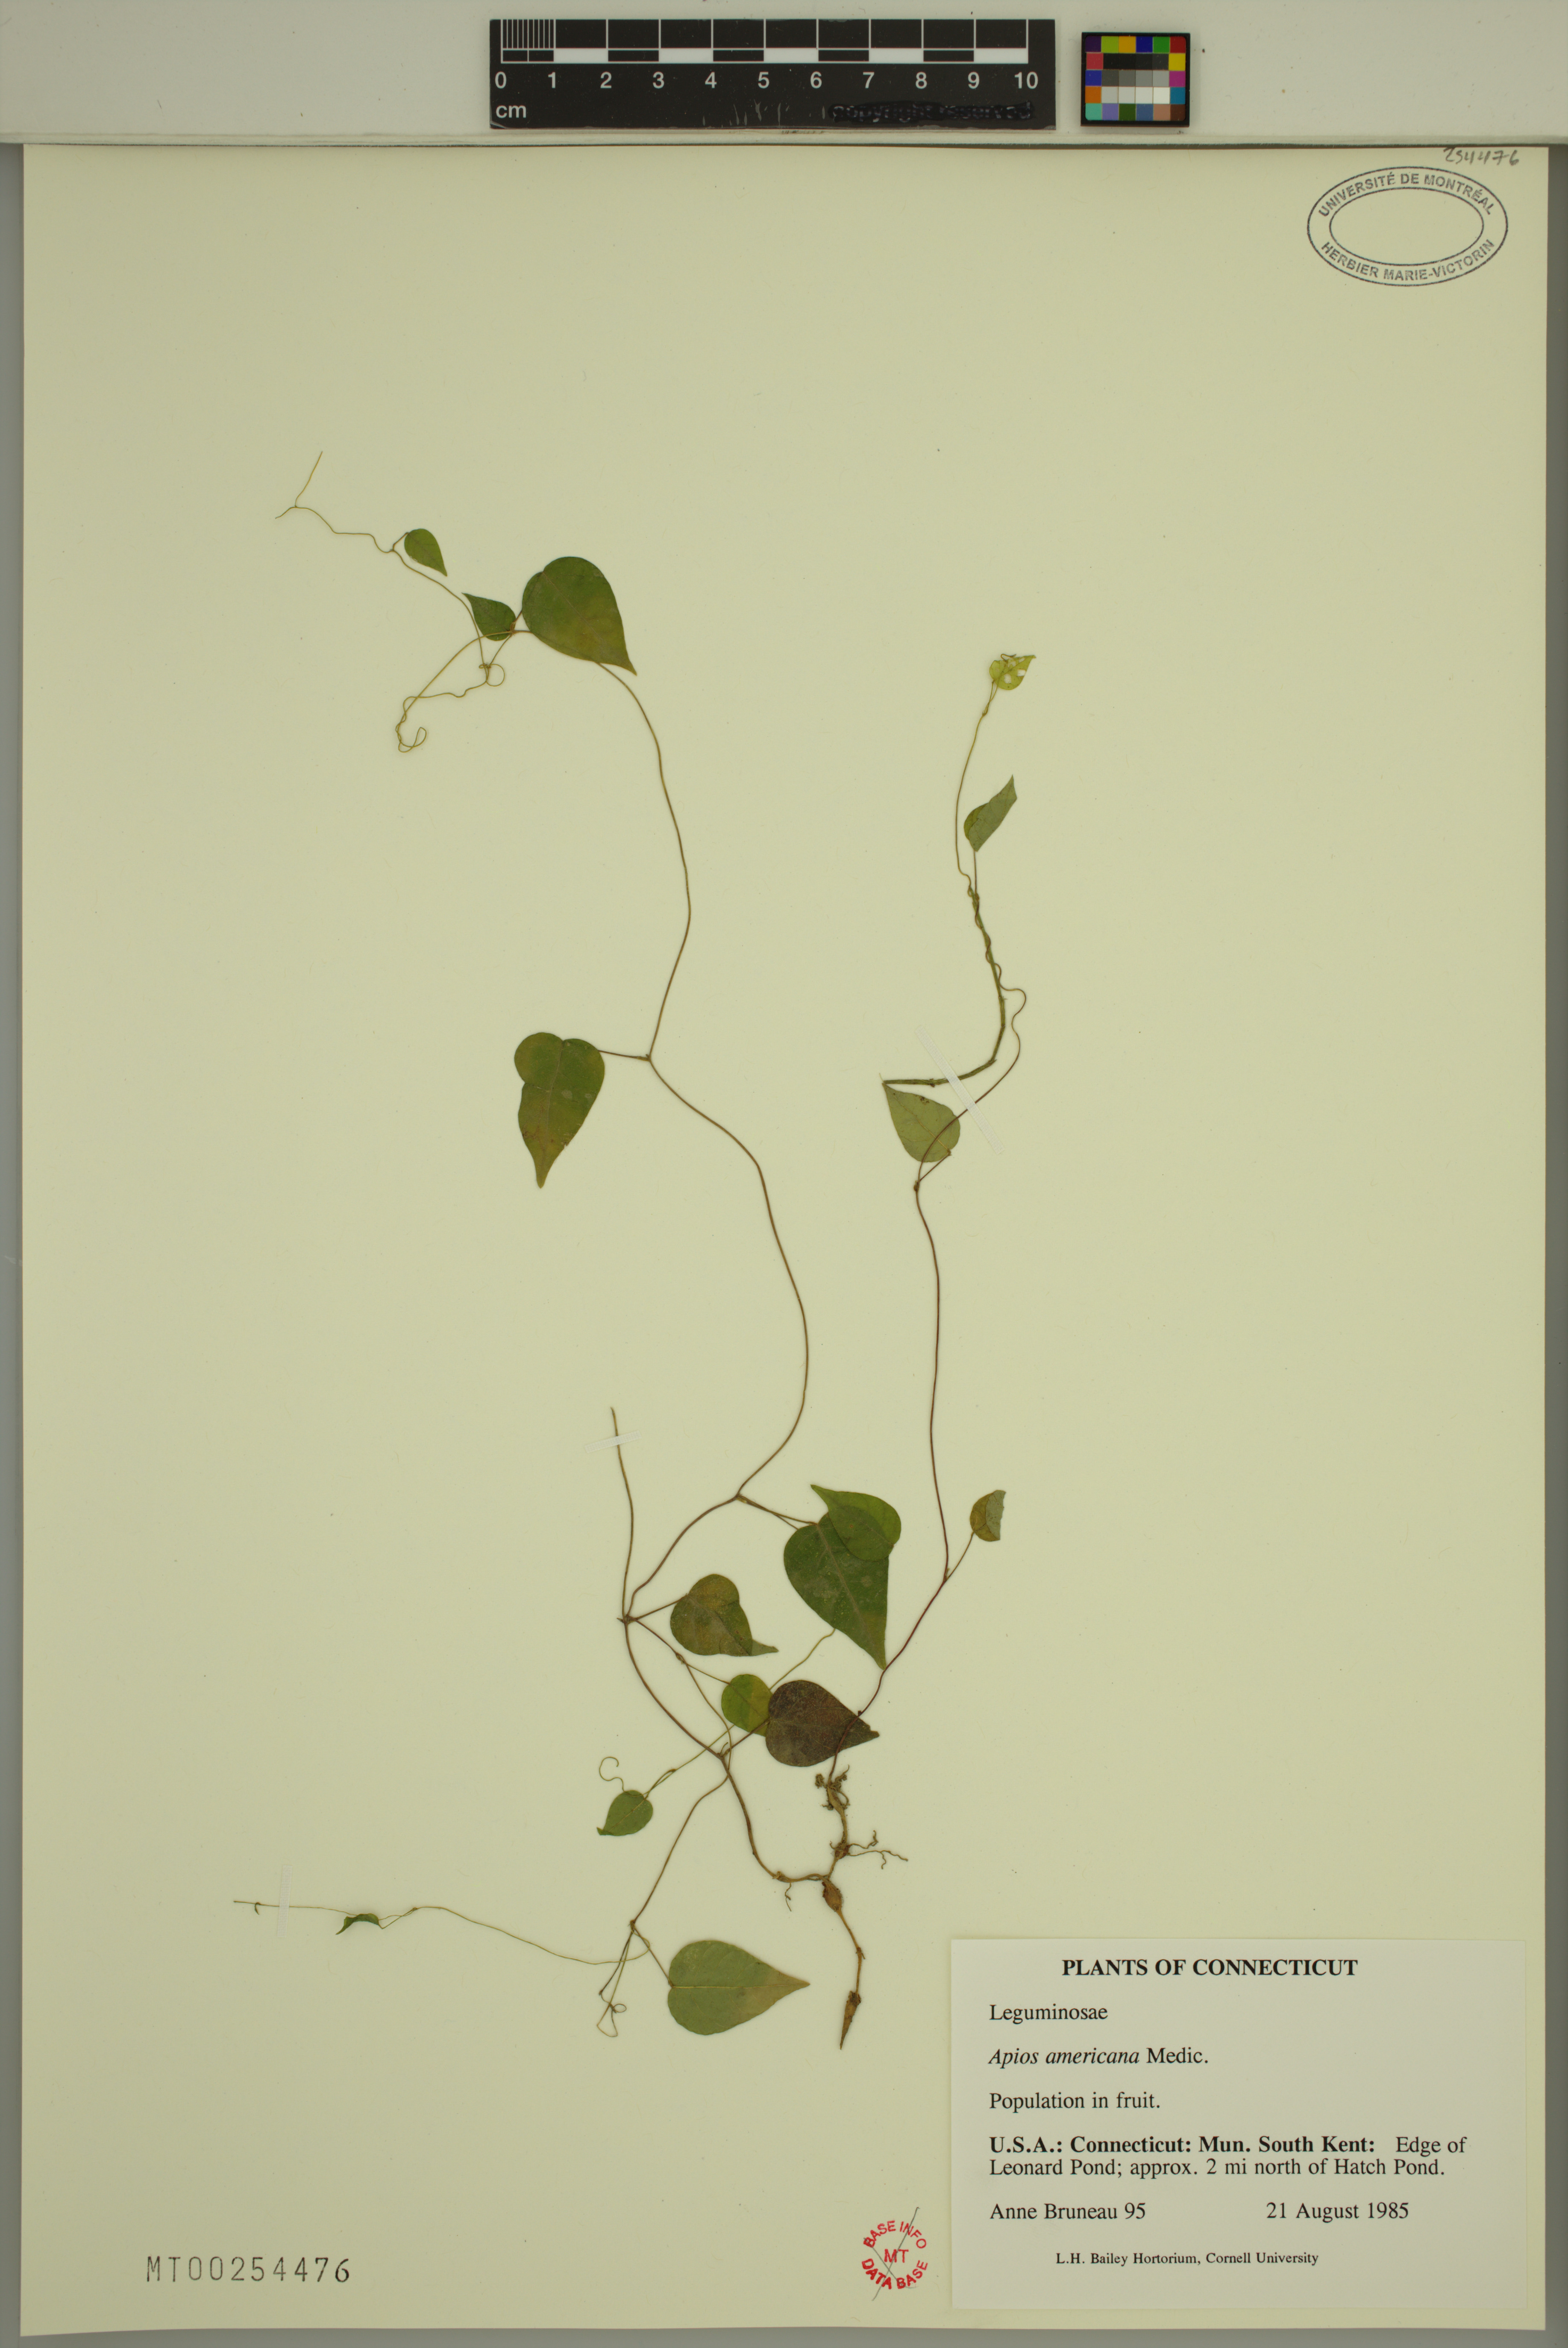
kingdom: Plantae
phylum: Tracheophyta
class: Magnoliopsida
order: Fabales
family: Fabaceae
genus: Apios
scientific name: Apios americana
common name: American potato-bean
